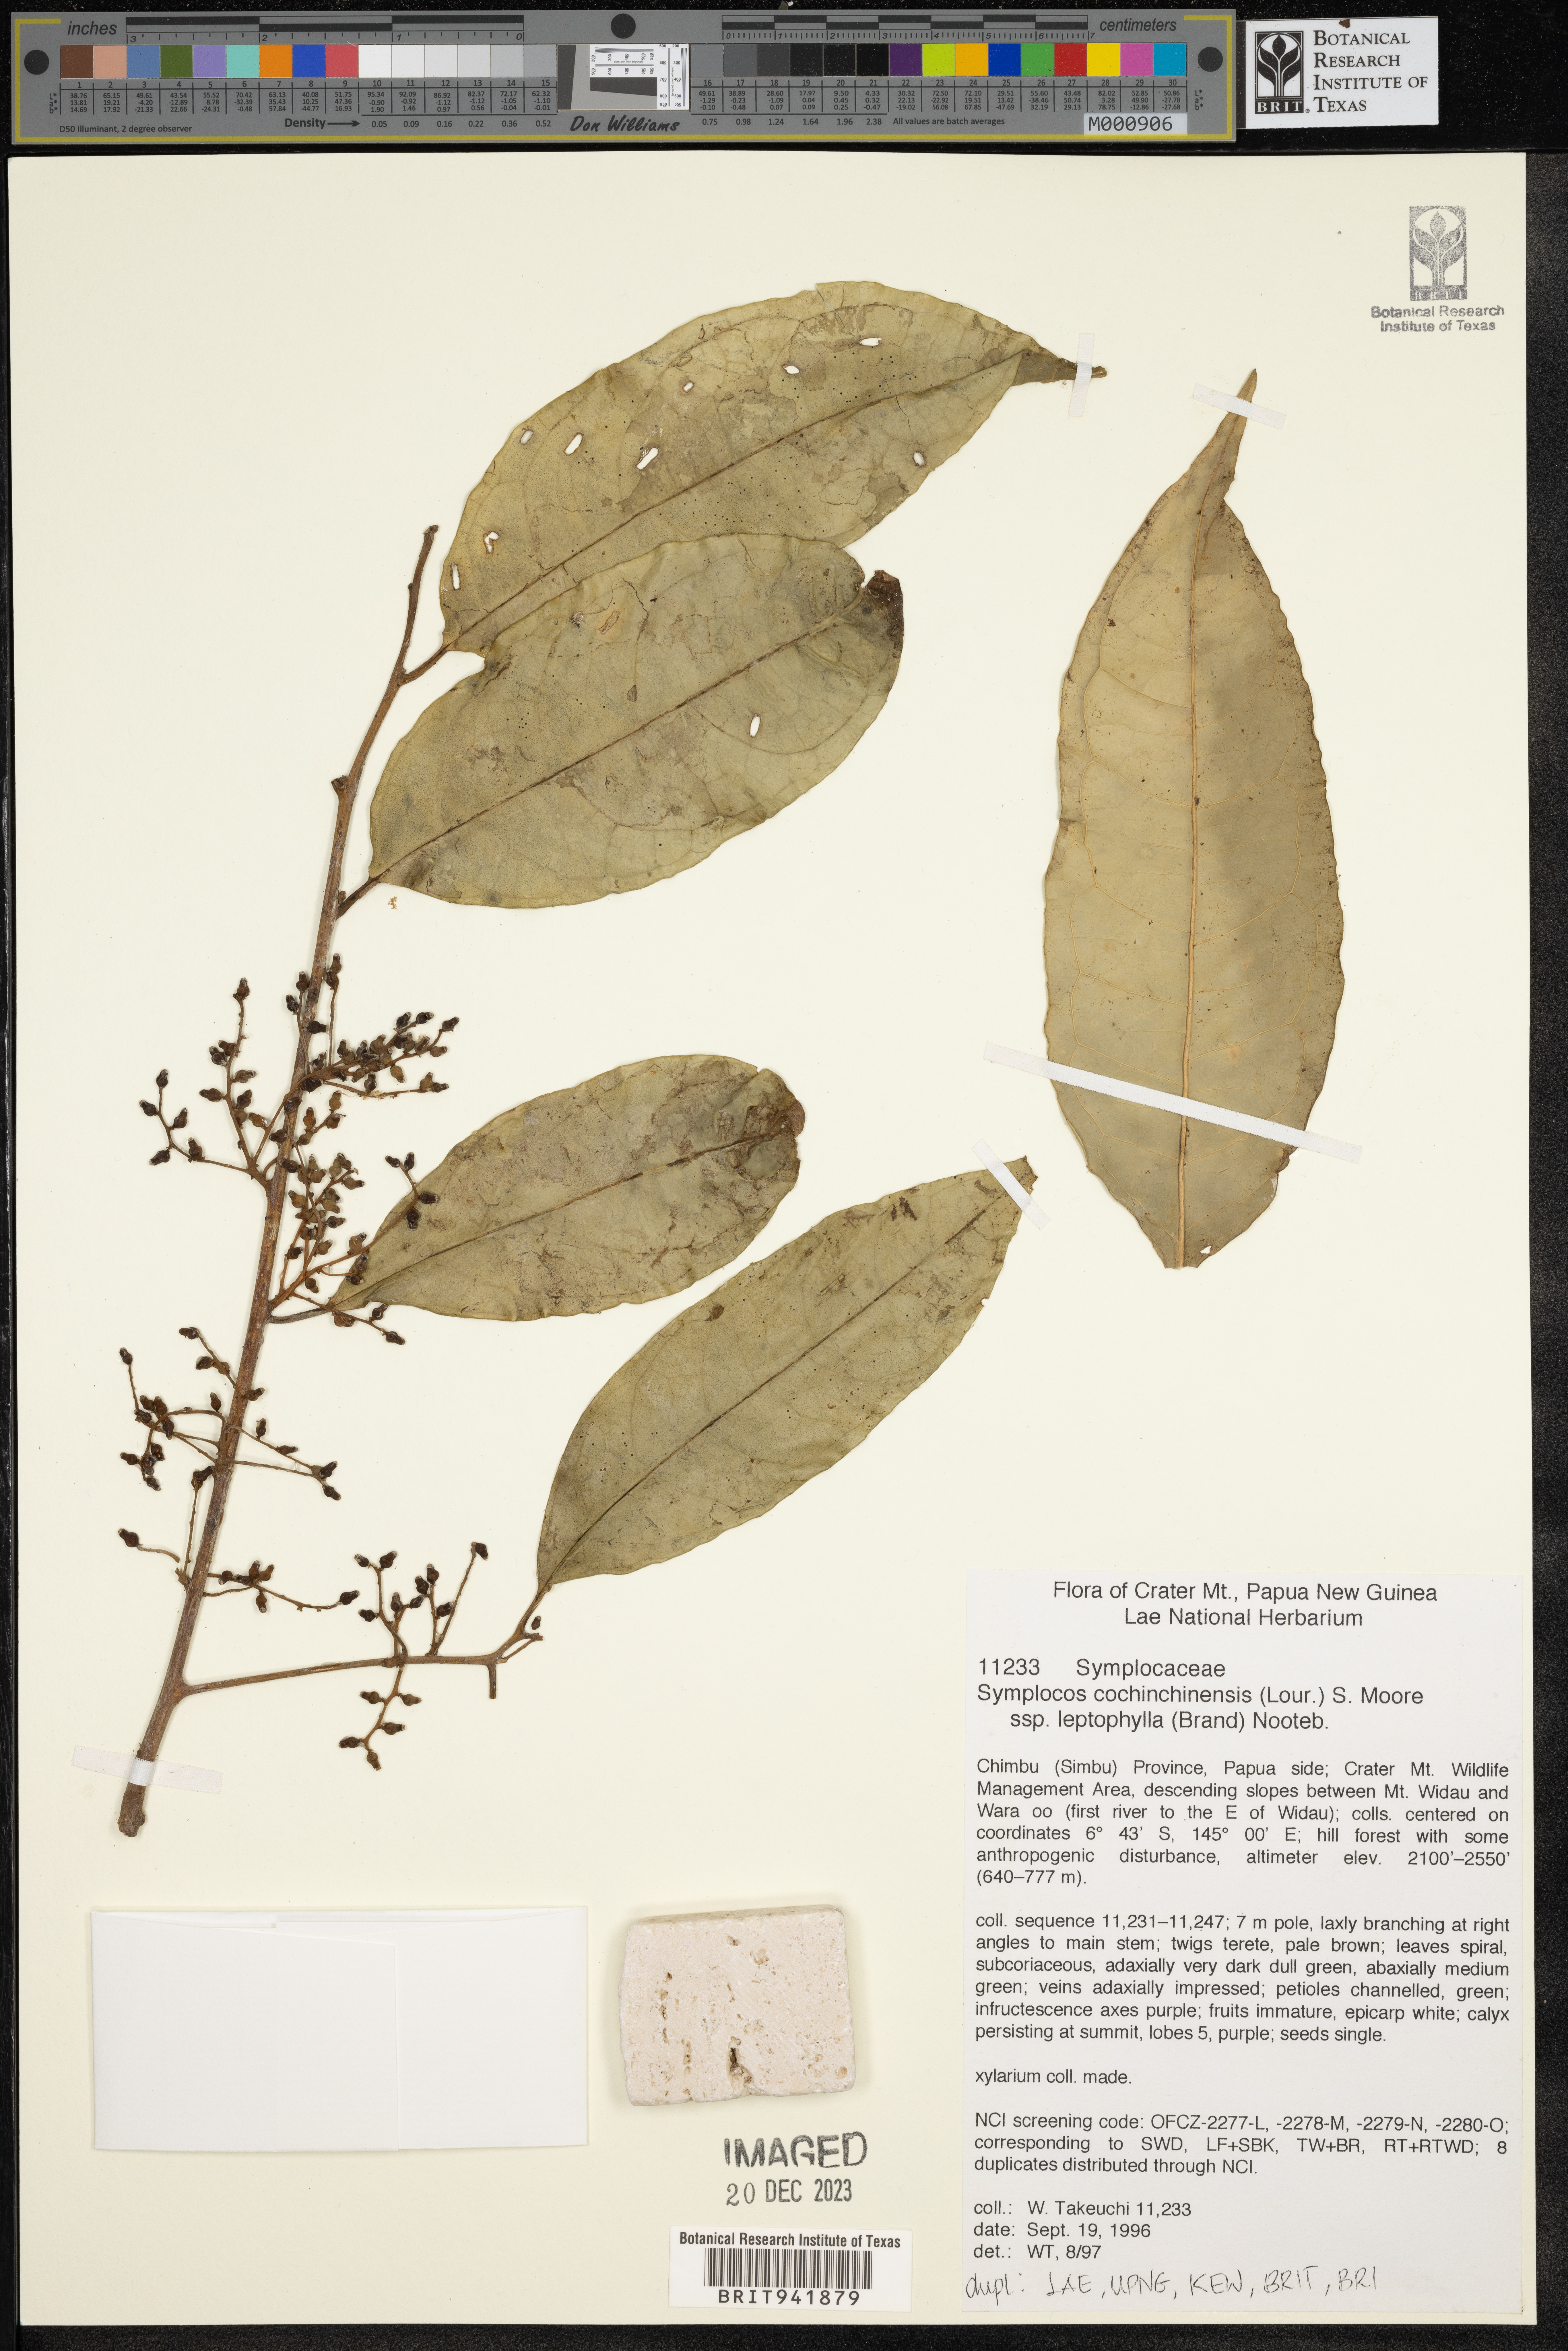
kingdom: Plantae
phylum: Tracheophyta
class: Magnoliopsida
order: Ericales
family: Symplocaceae
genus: Symplocos
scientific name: Symplocos cochinchinensis
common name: Buff hazelwood
